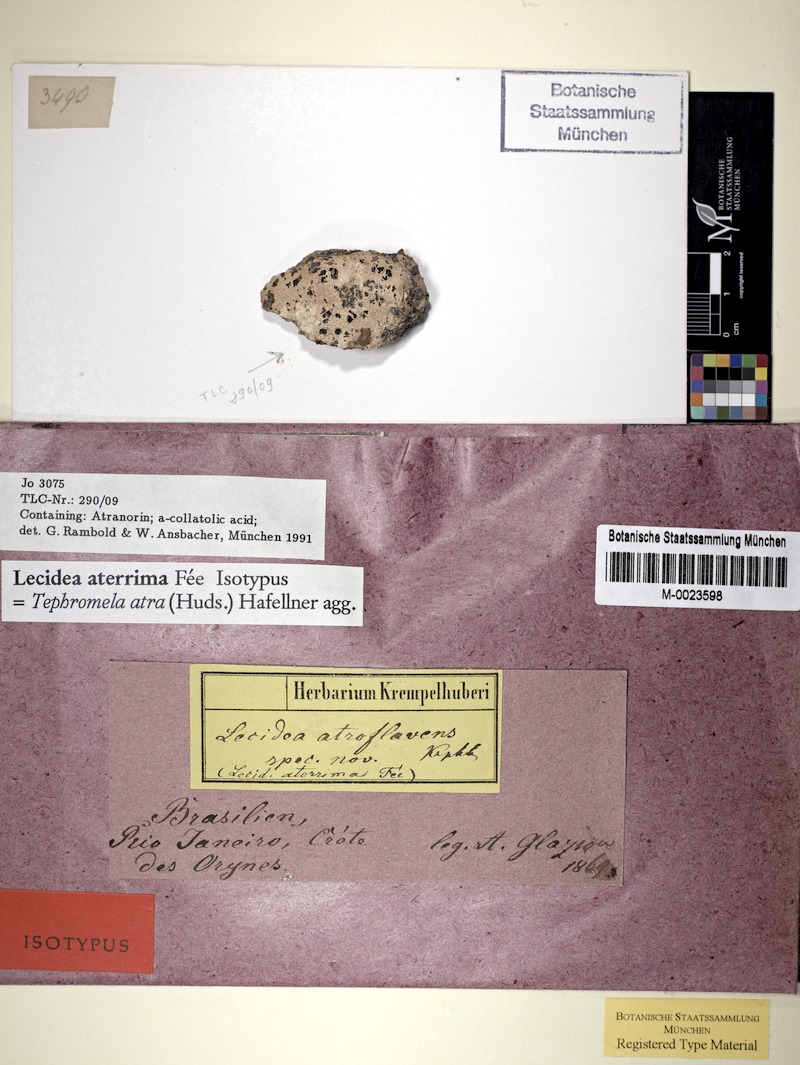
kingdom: Fungi
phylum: Ascomycota
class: Lecanoromycetes
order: Lecanorales
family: Tephromelataceae
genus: Tephromela
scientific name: Tephromela atra
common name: Black shields
